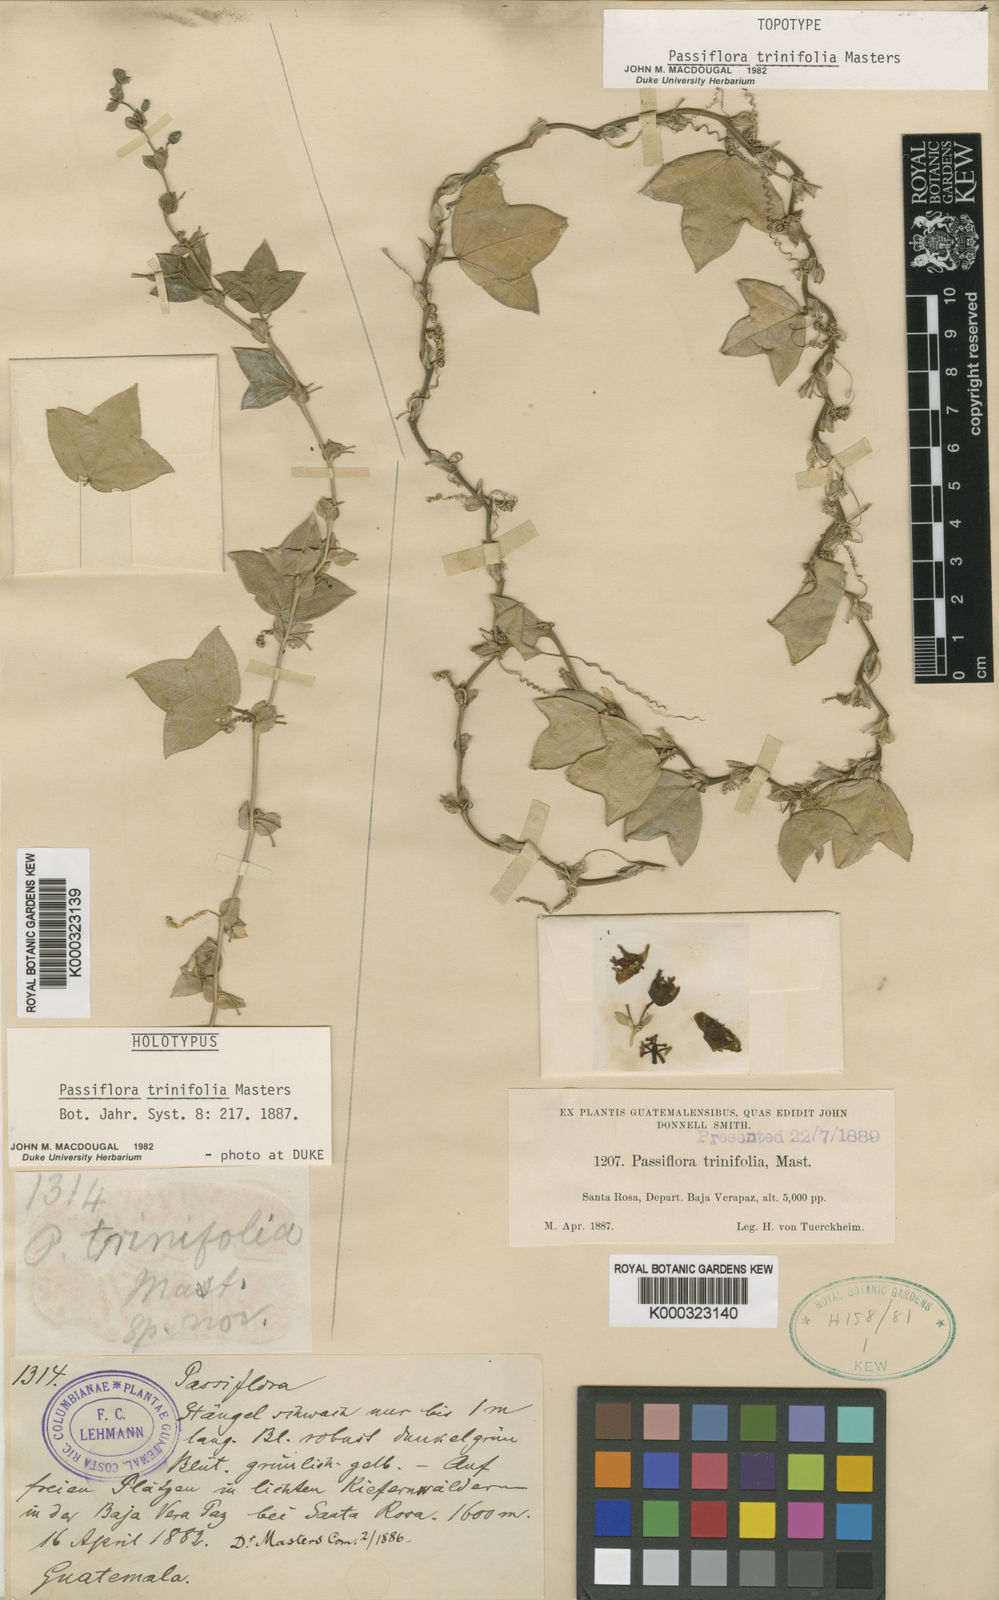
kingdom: Plantae
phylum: Tracheophyta
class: Magnoliopsida
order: Malpighiales
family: Passifloraceae
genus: Passiflora
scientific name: Passiflora trinifolia
